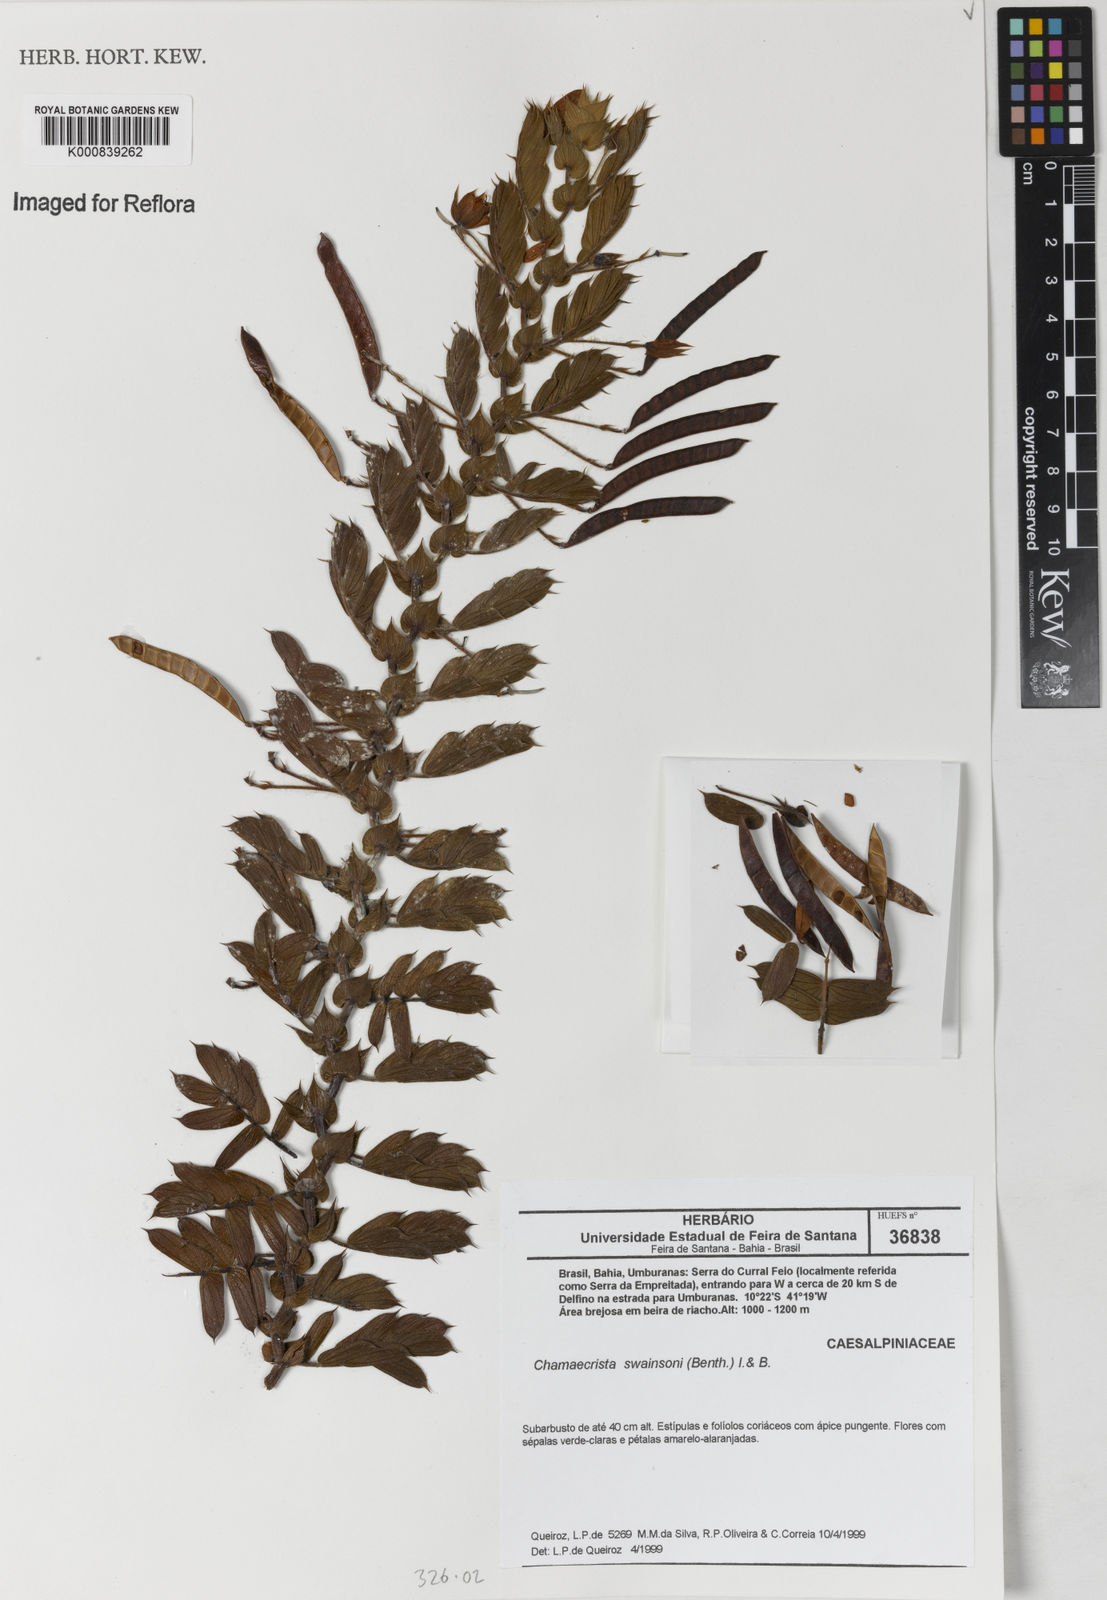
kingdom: Plantae
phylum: Tracheophyta
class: Magnoliopsida
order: Fabales
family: Fabaceae
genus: Chamaecrista
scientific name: Chamaecrista swainsonii
